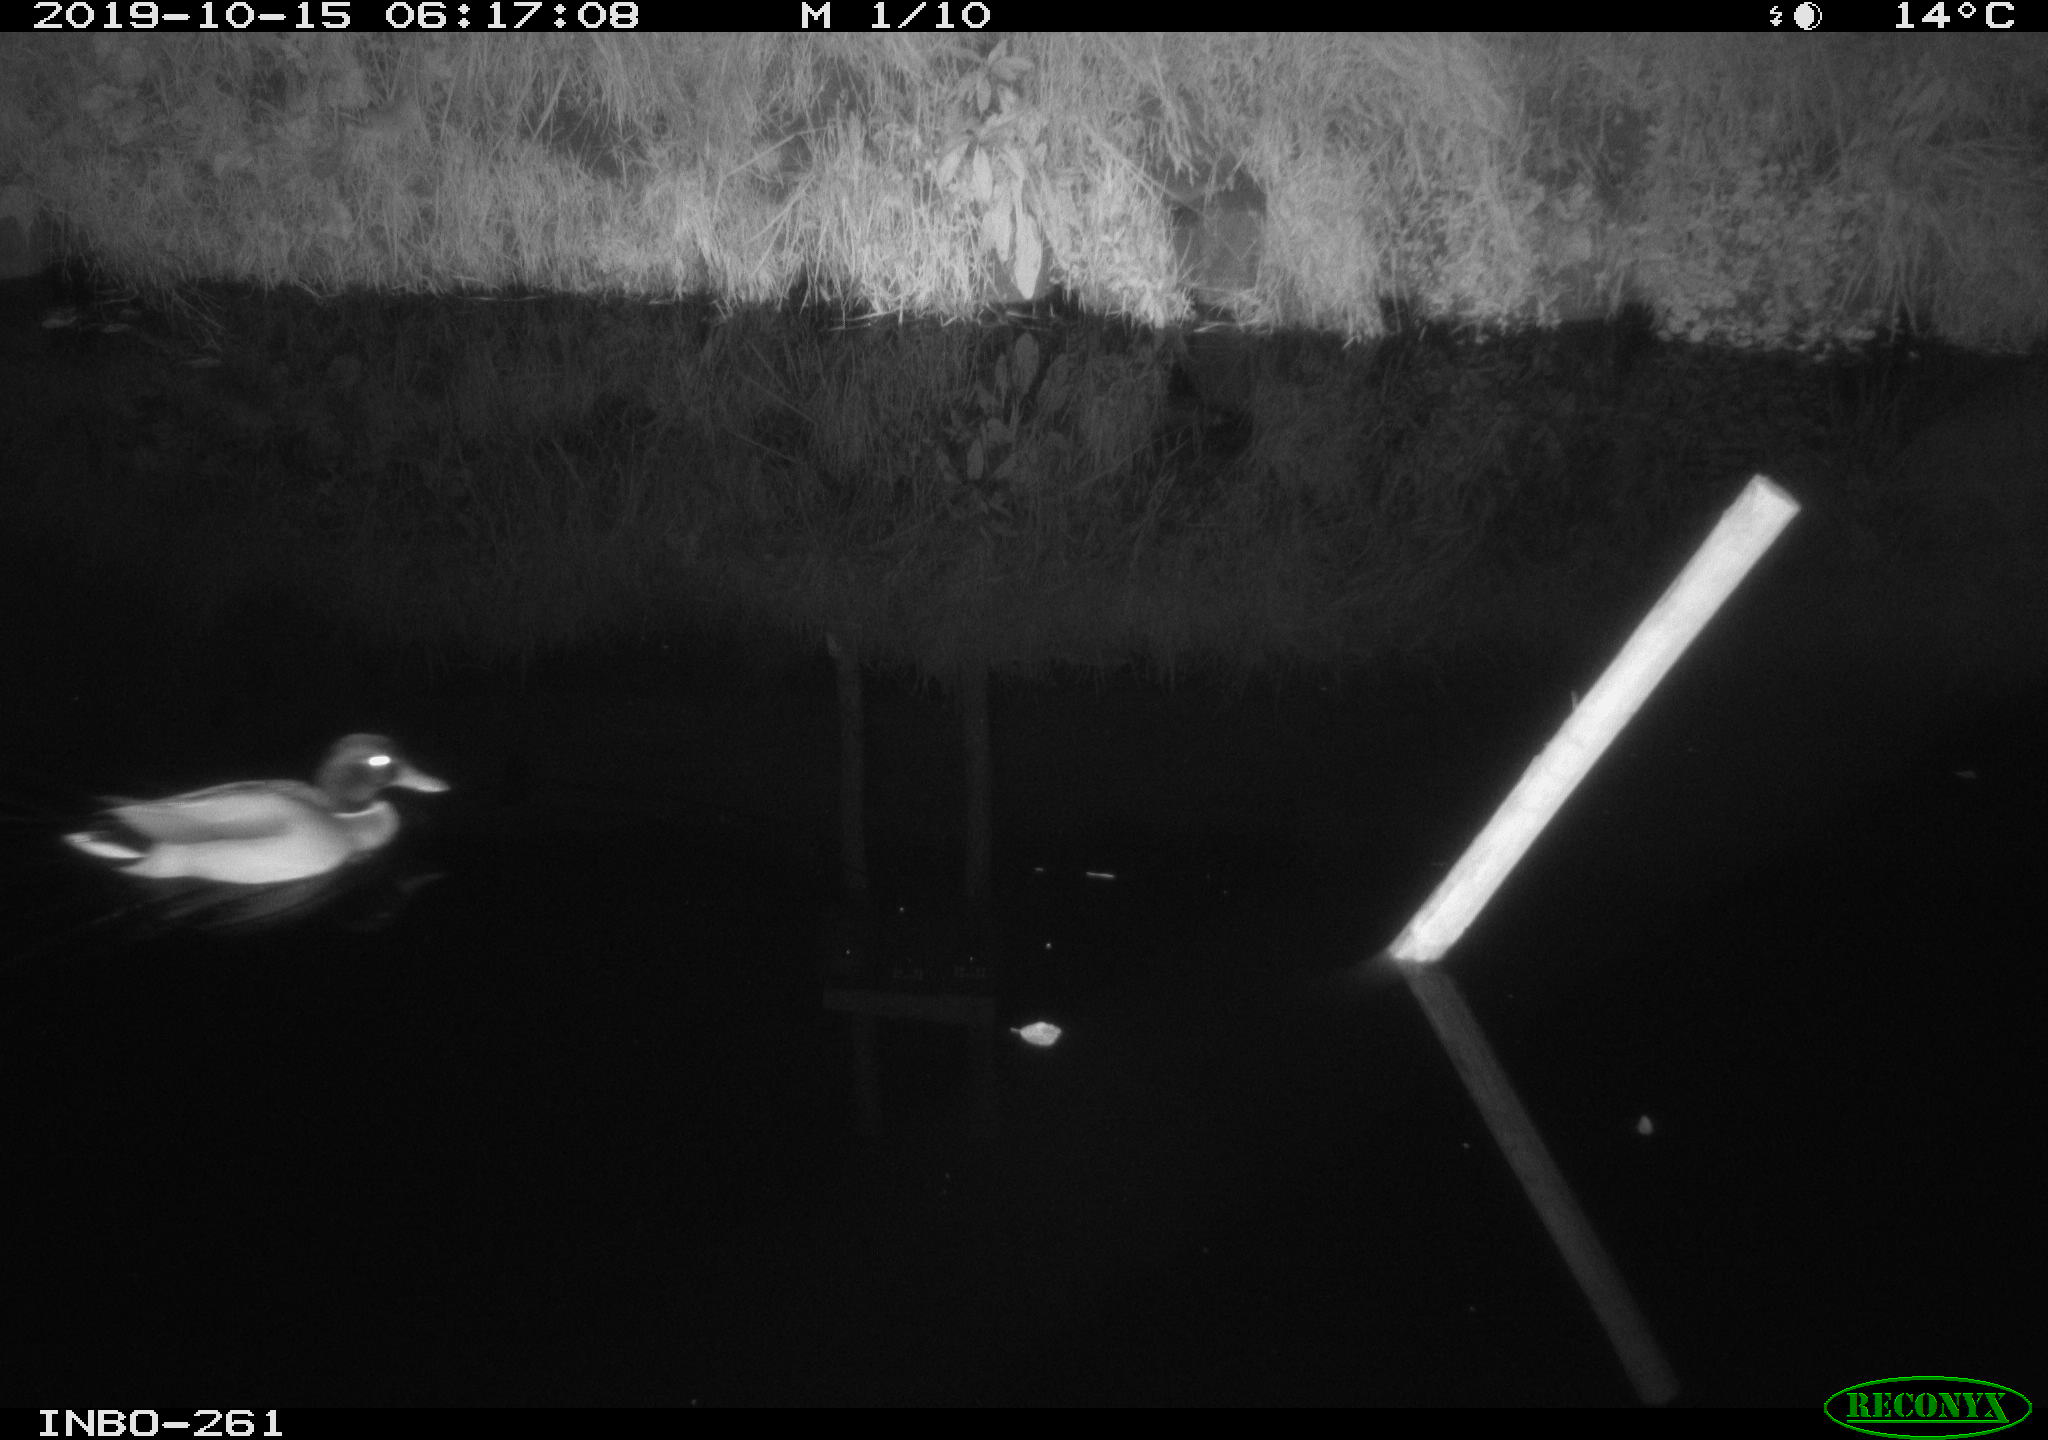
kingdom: Animalia
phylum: Chordata
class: Aves
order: Anseriformes
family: Anatidae
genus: Anas
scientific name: Anas platyrhynchos
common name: Mallard
